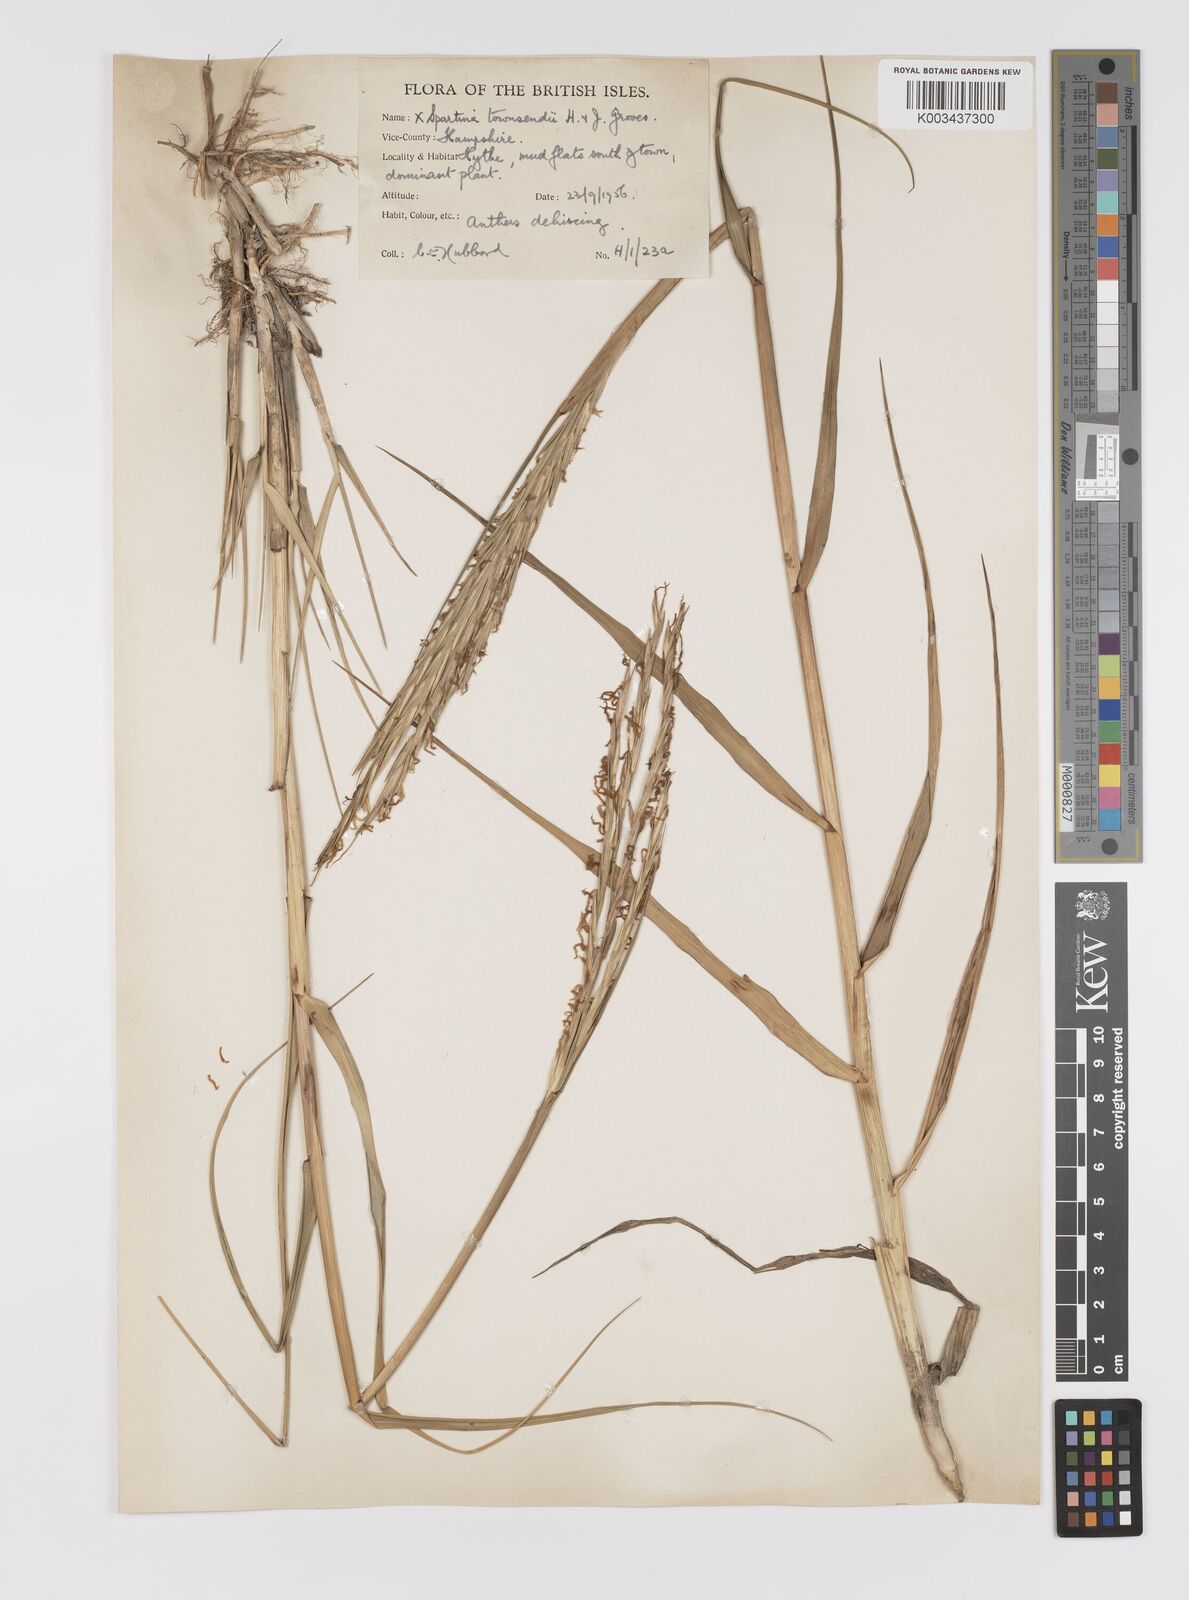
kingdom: Plantae
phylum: Tracheophyta
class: Liliopsida
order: Poales
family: Poaceae
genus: Sporobolus
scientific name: Sporobolus townsendii
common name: Townsend's cordgrass
